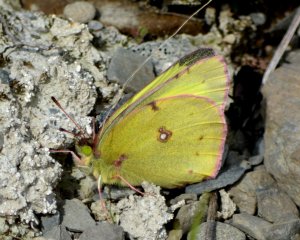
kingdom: Animalia
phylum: Arthropoda
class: Insecta
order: Lepidoptera
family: Pieridae
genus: Colias
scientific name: Colias philodice
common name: Clouded Sulphur
